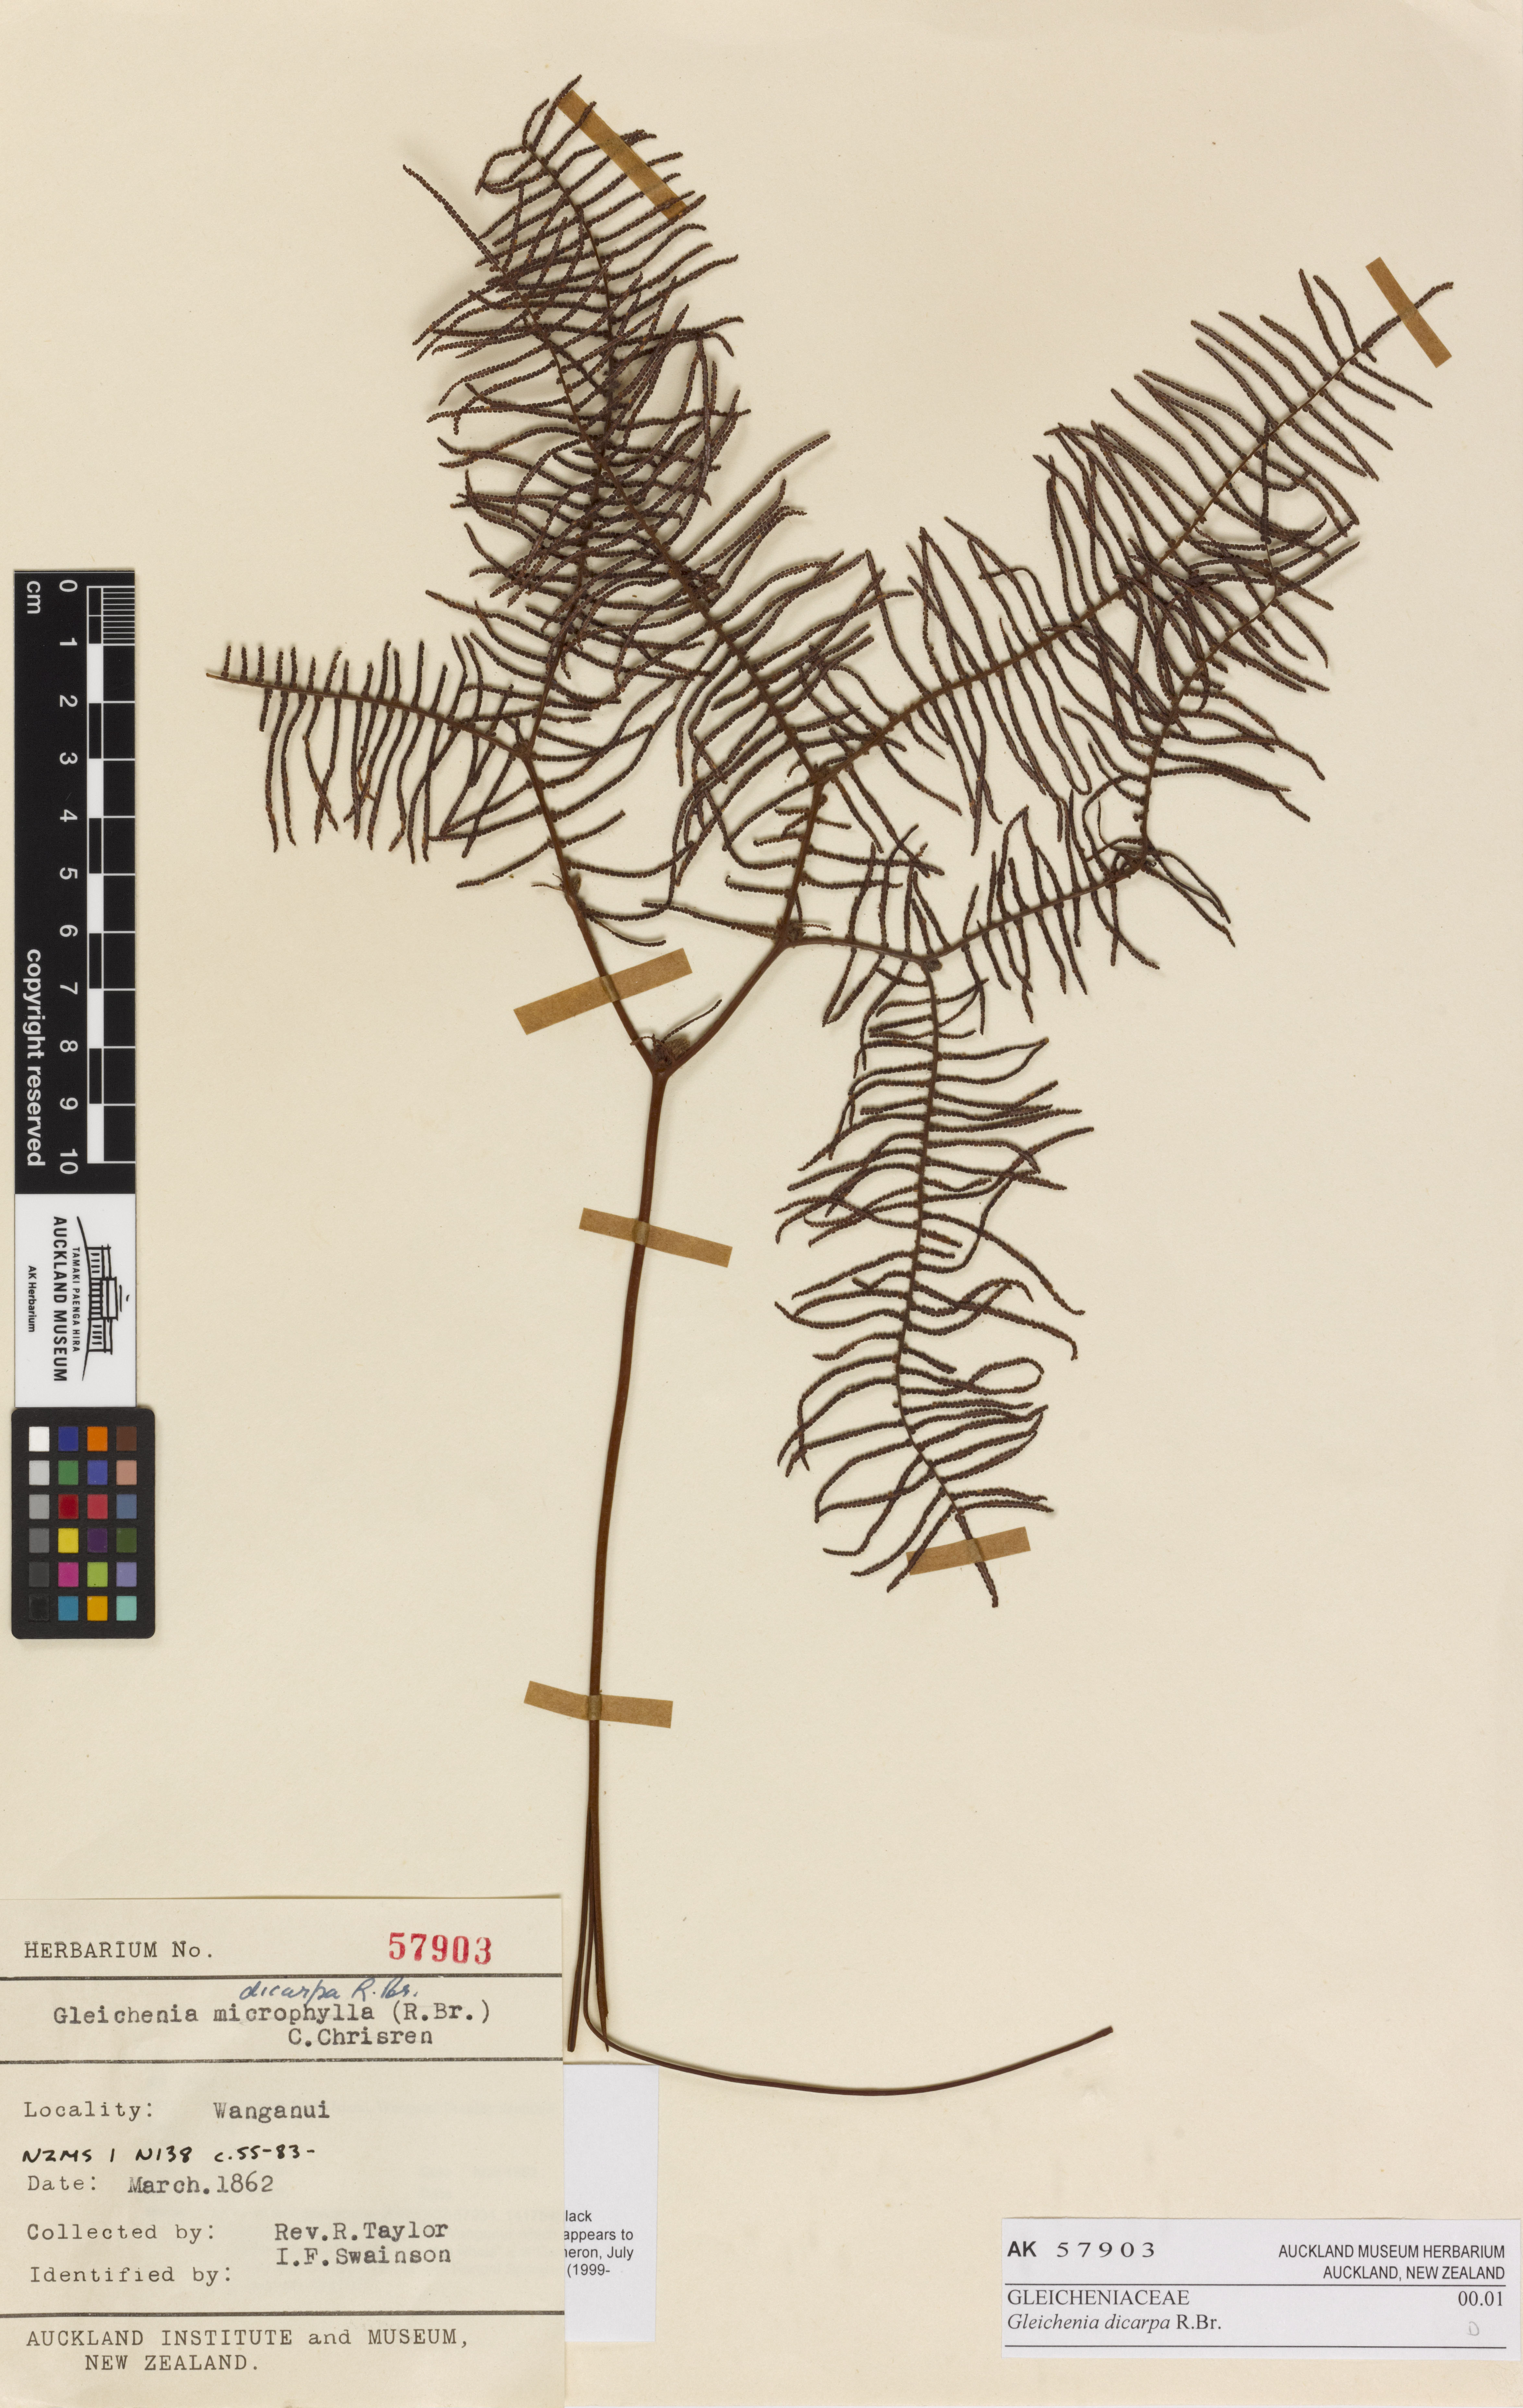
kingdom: Plantae
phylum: Tracheophyta
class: Polypodiopsida
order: Gleicheniales
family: Gleicheniaceae
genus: Gleichenia
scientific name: Gleichenia dicarpa
